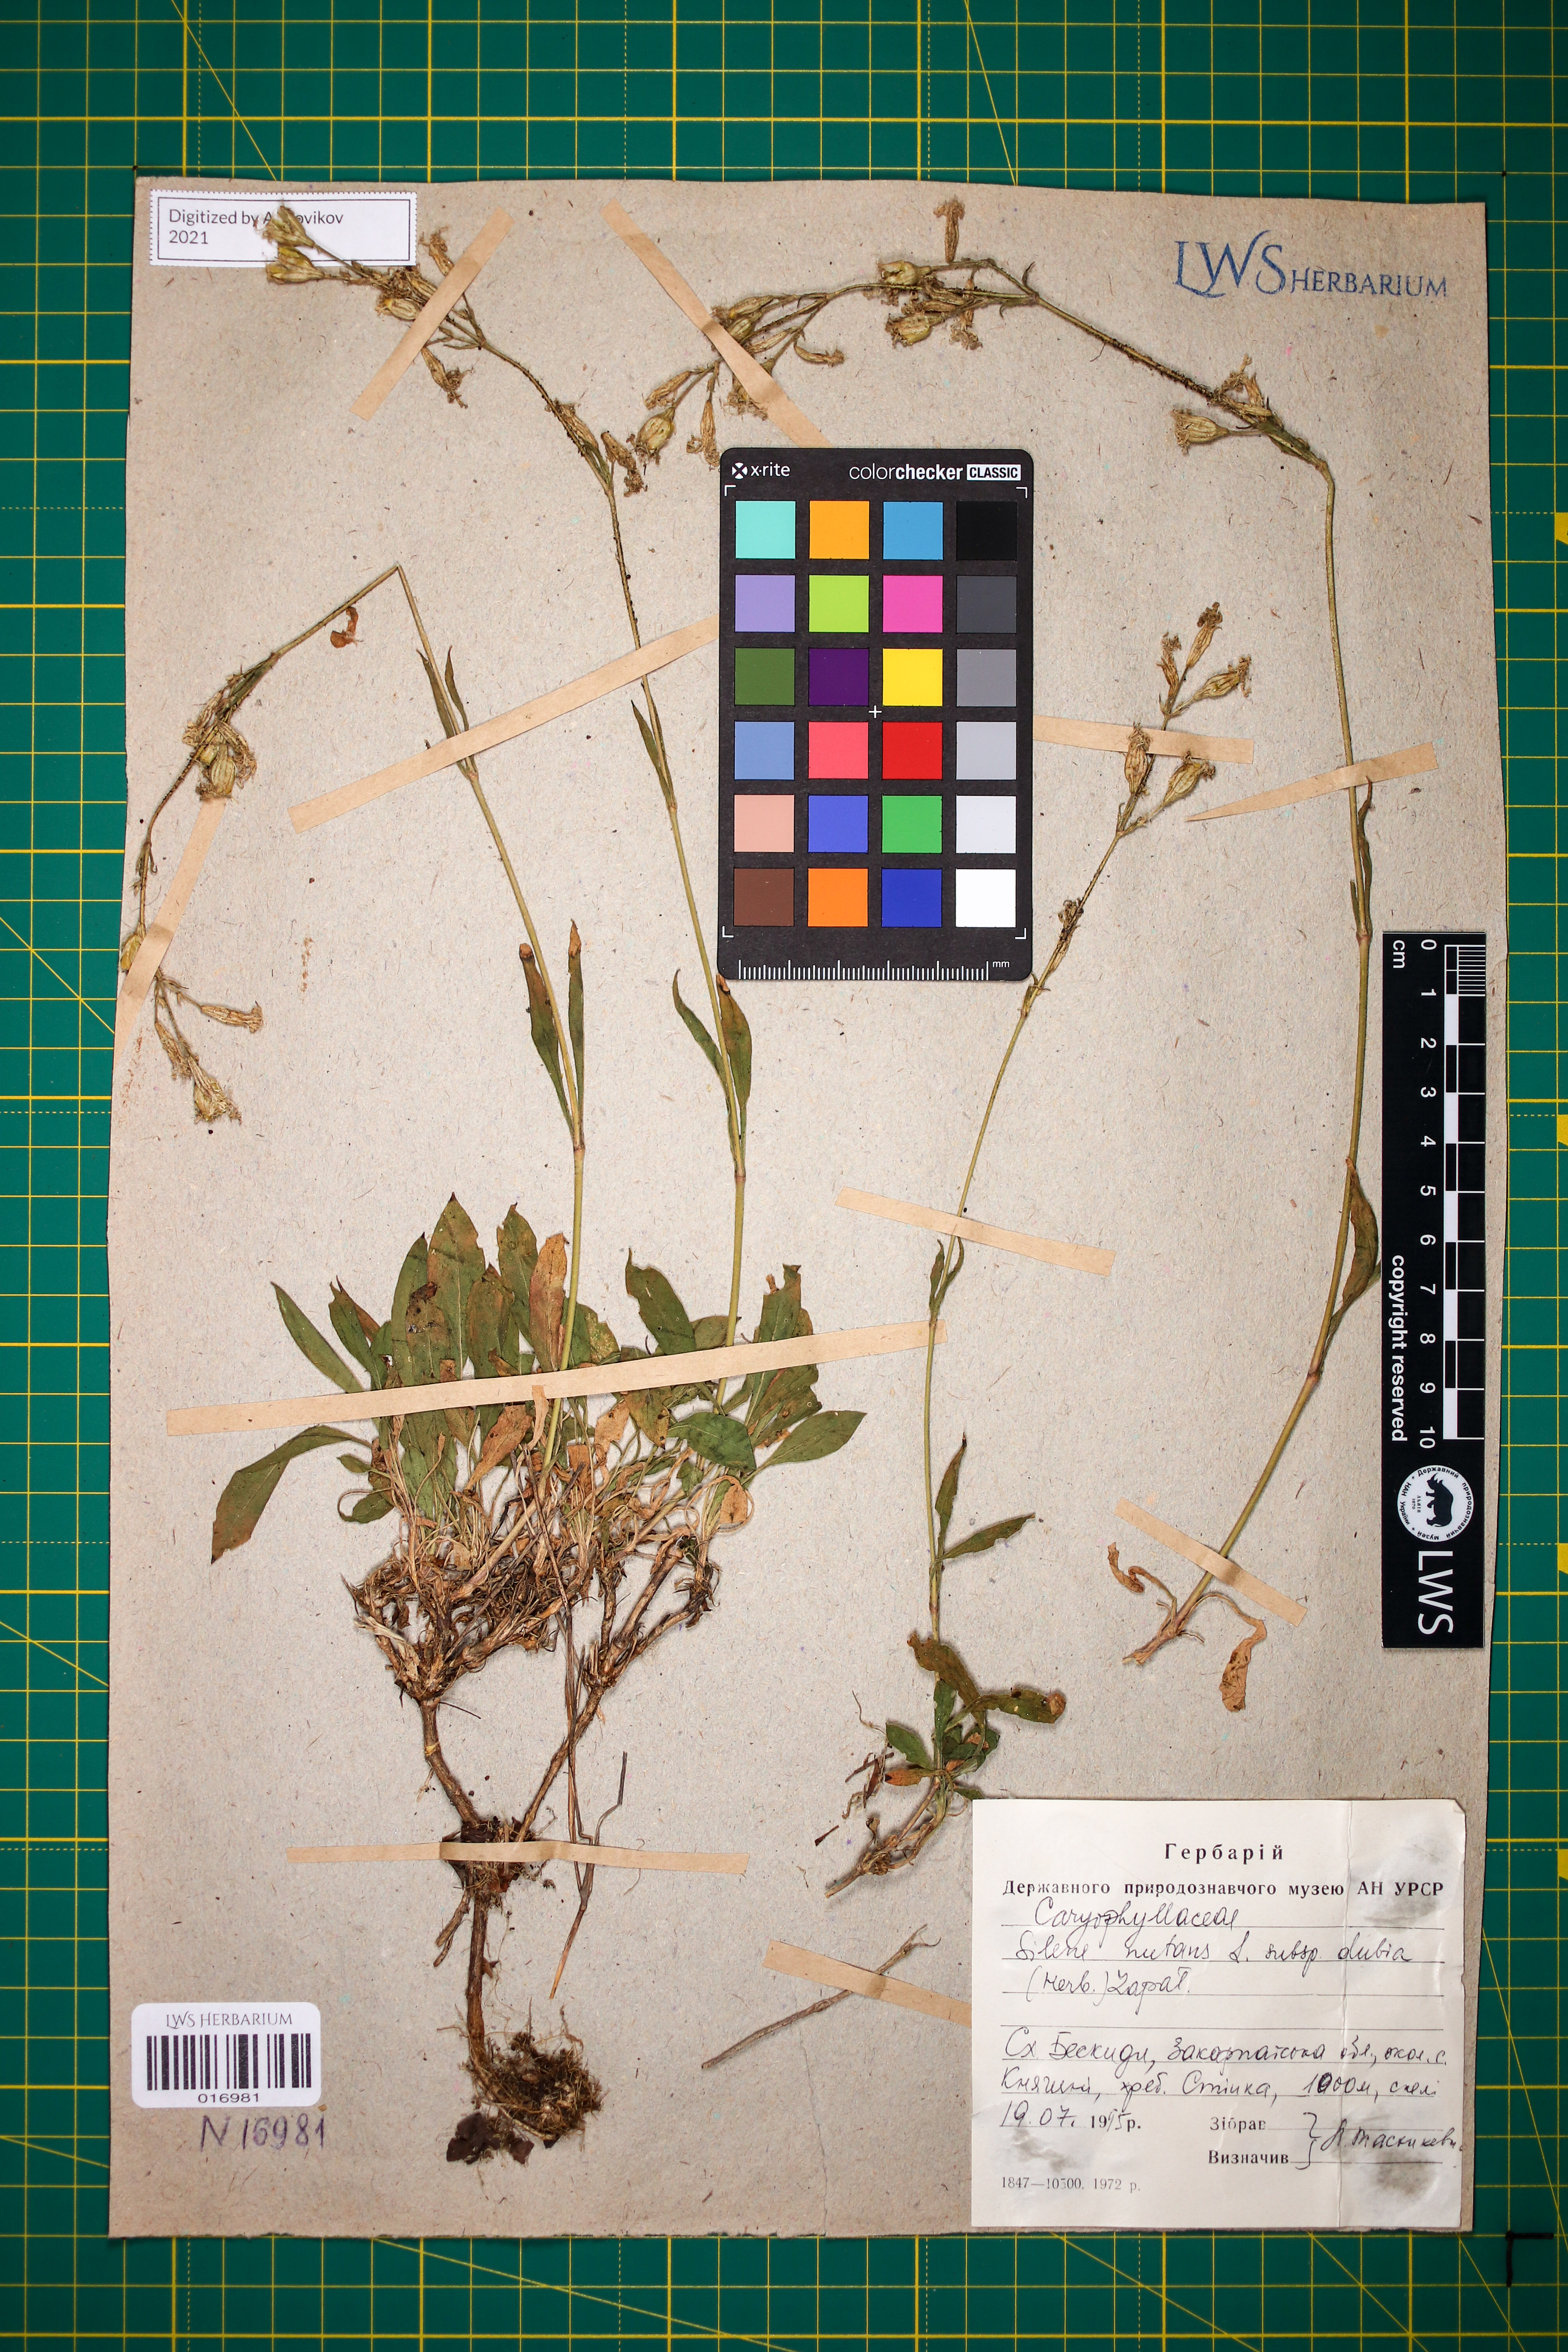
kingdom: Plantae
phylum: Tracheophyta
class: Magnoliopsida
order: Caryophyllales
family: Caryophyllaceae
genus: Silene
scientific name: Silene nutans
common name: Nottingham catchfly
